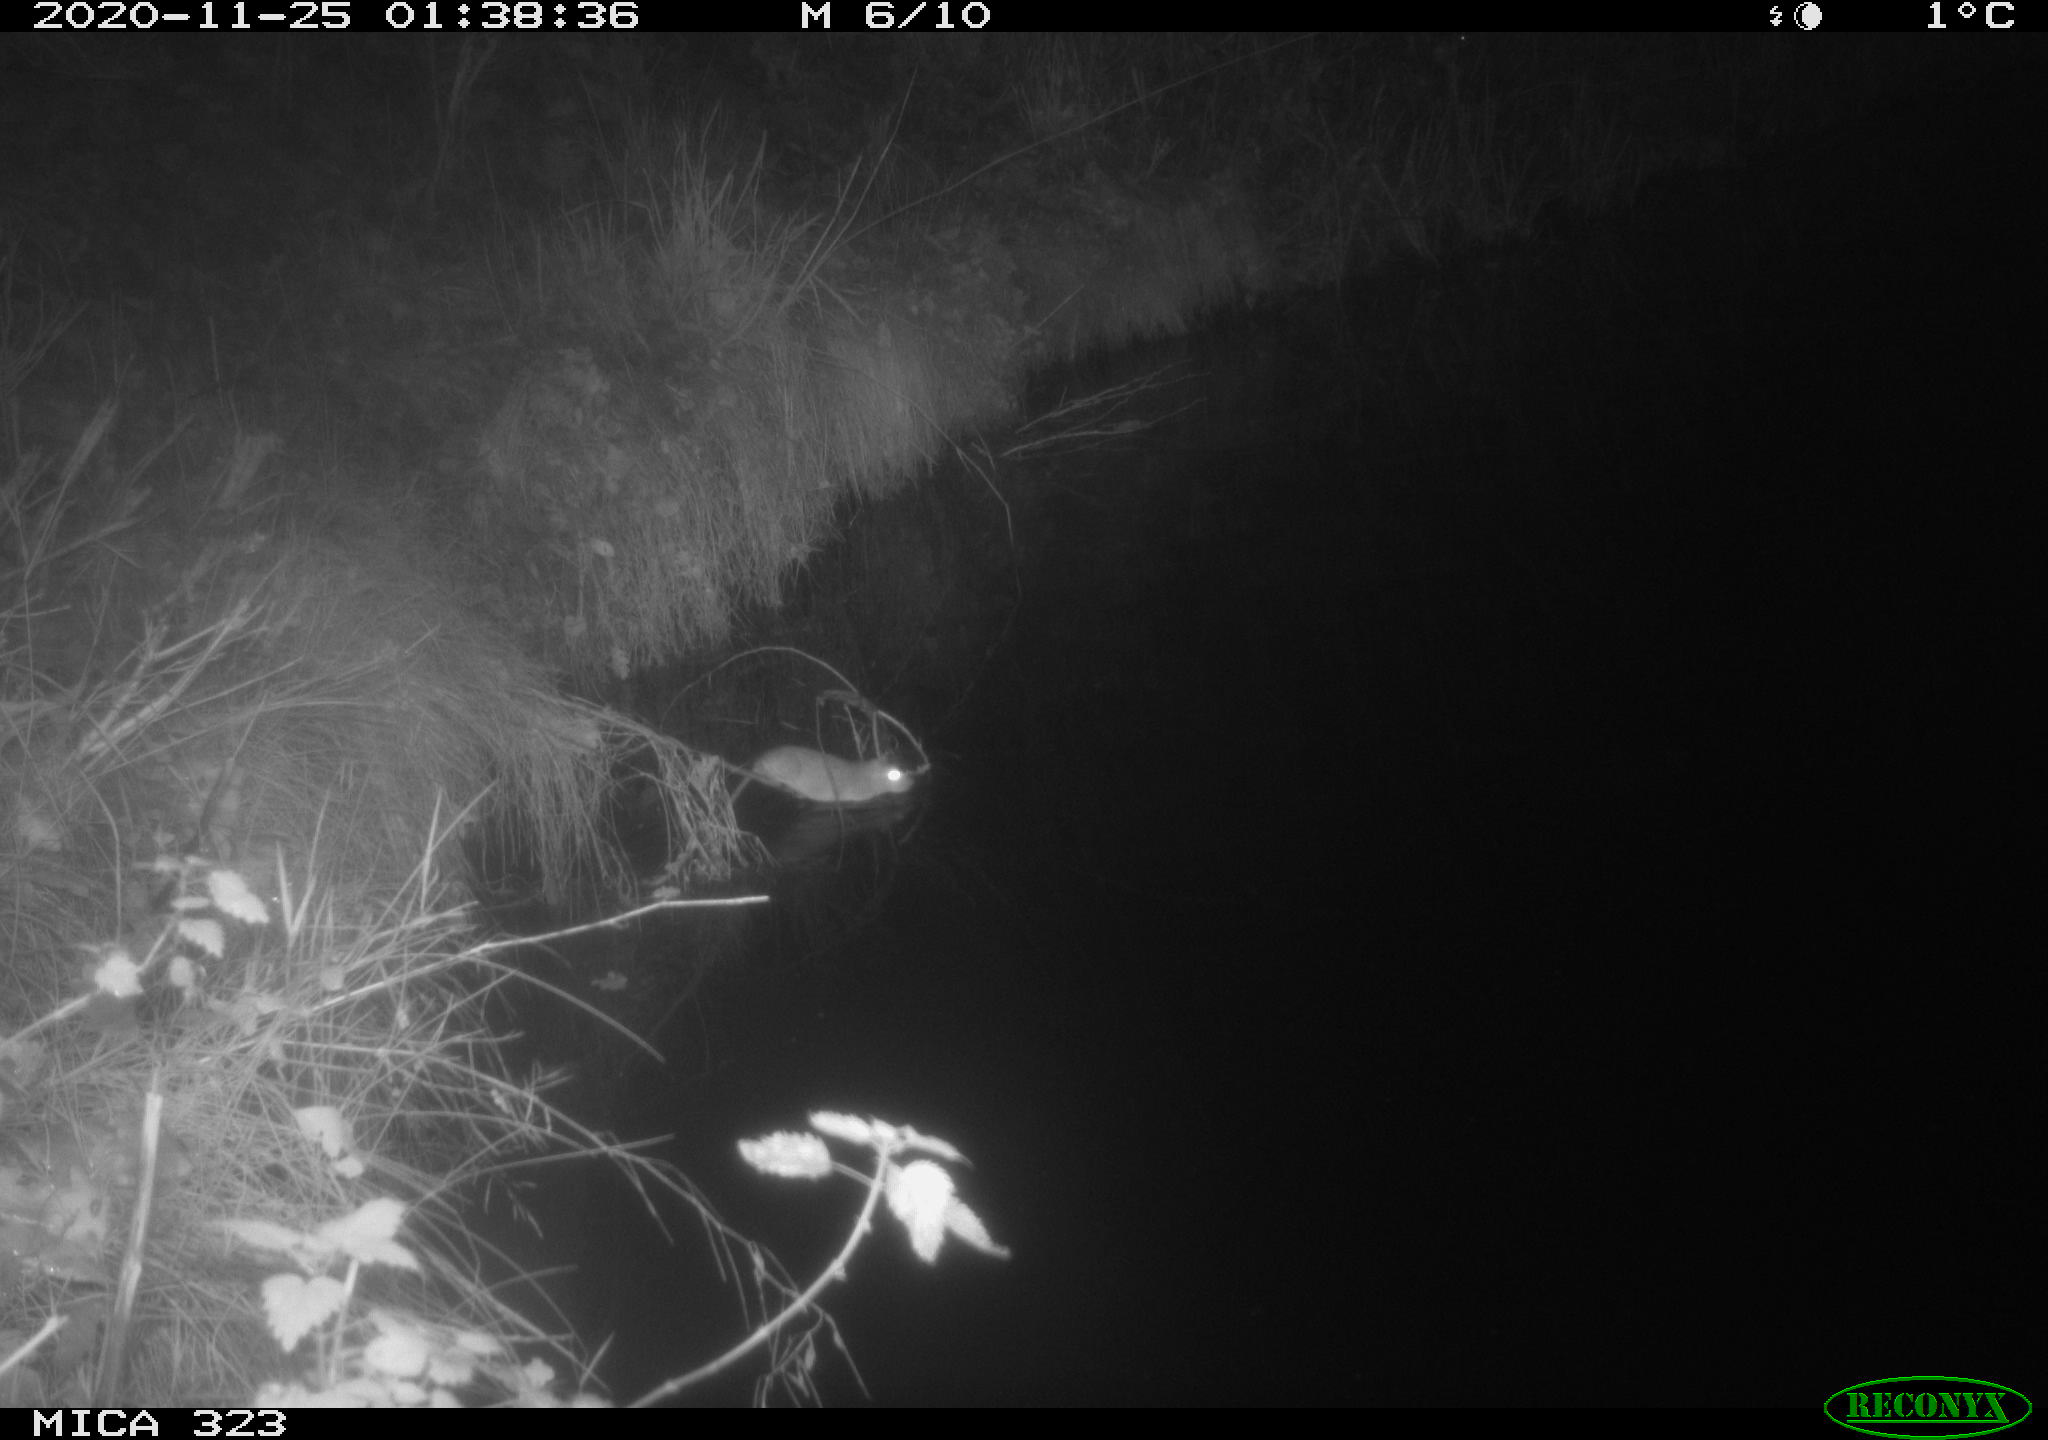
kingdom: Animalia
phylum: Chordata
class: Mammalia
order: Rodentia
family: Muridae
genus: Rattus
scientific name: Rattus norvegicus
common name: Brown rat
